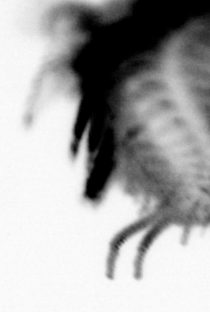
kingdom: Animalia
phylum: Annelida
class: Polychaeta
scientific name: Polychaeta
